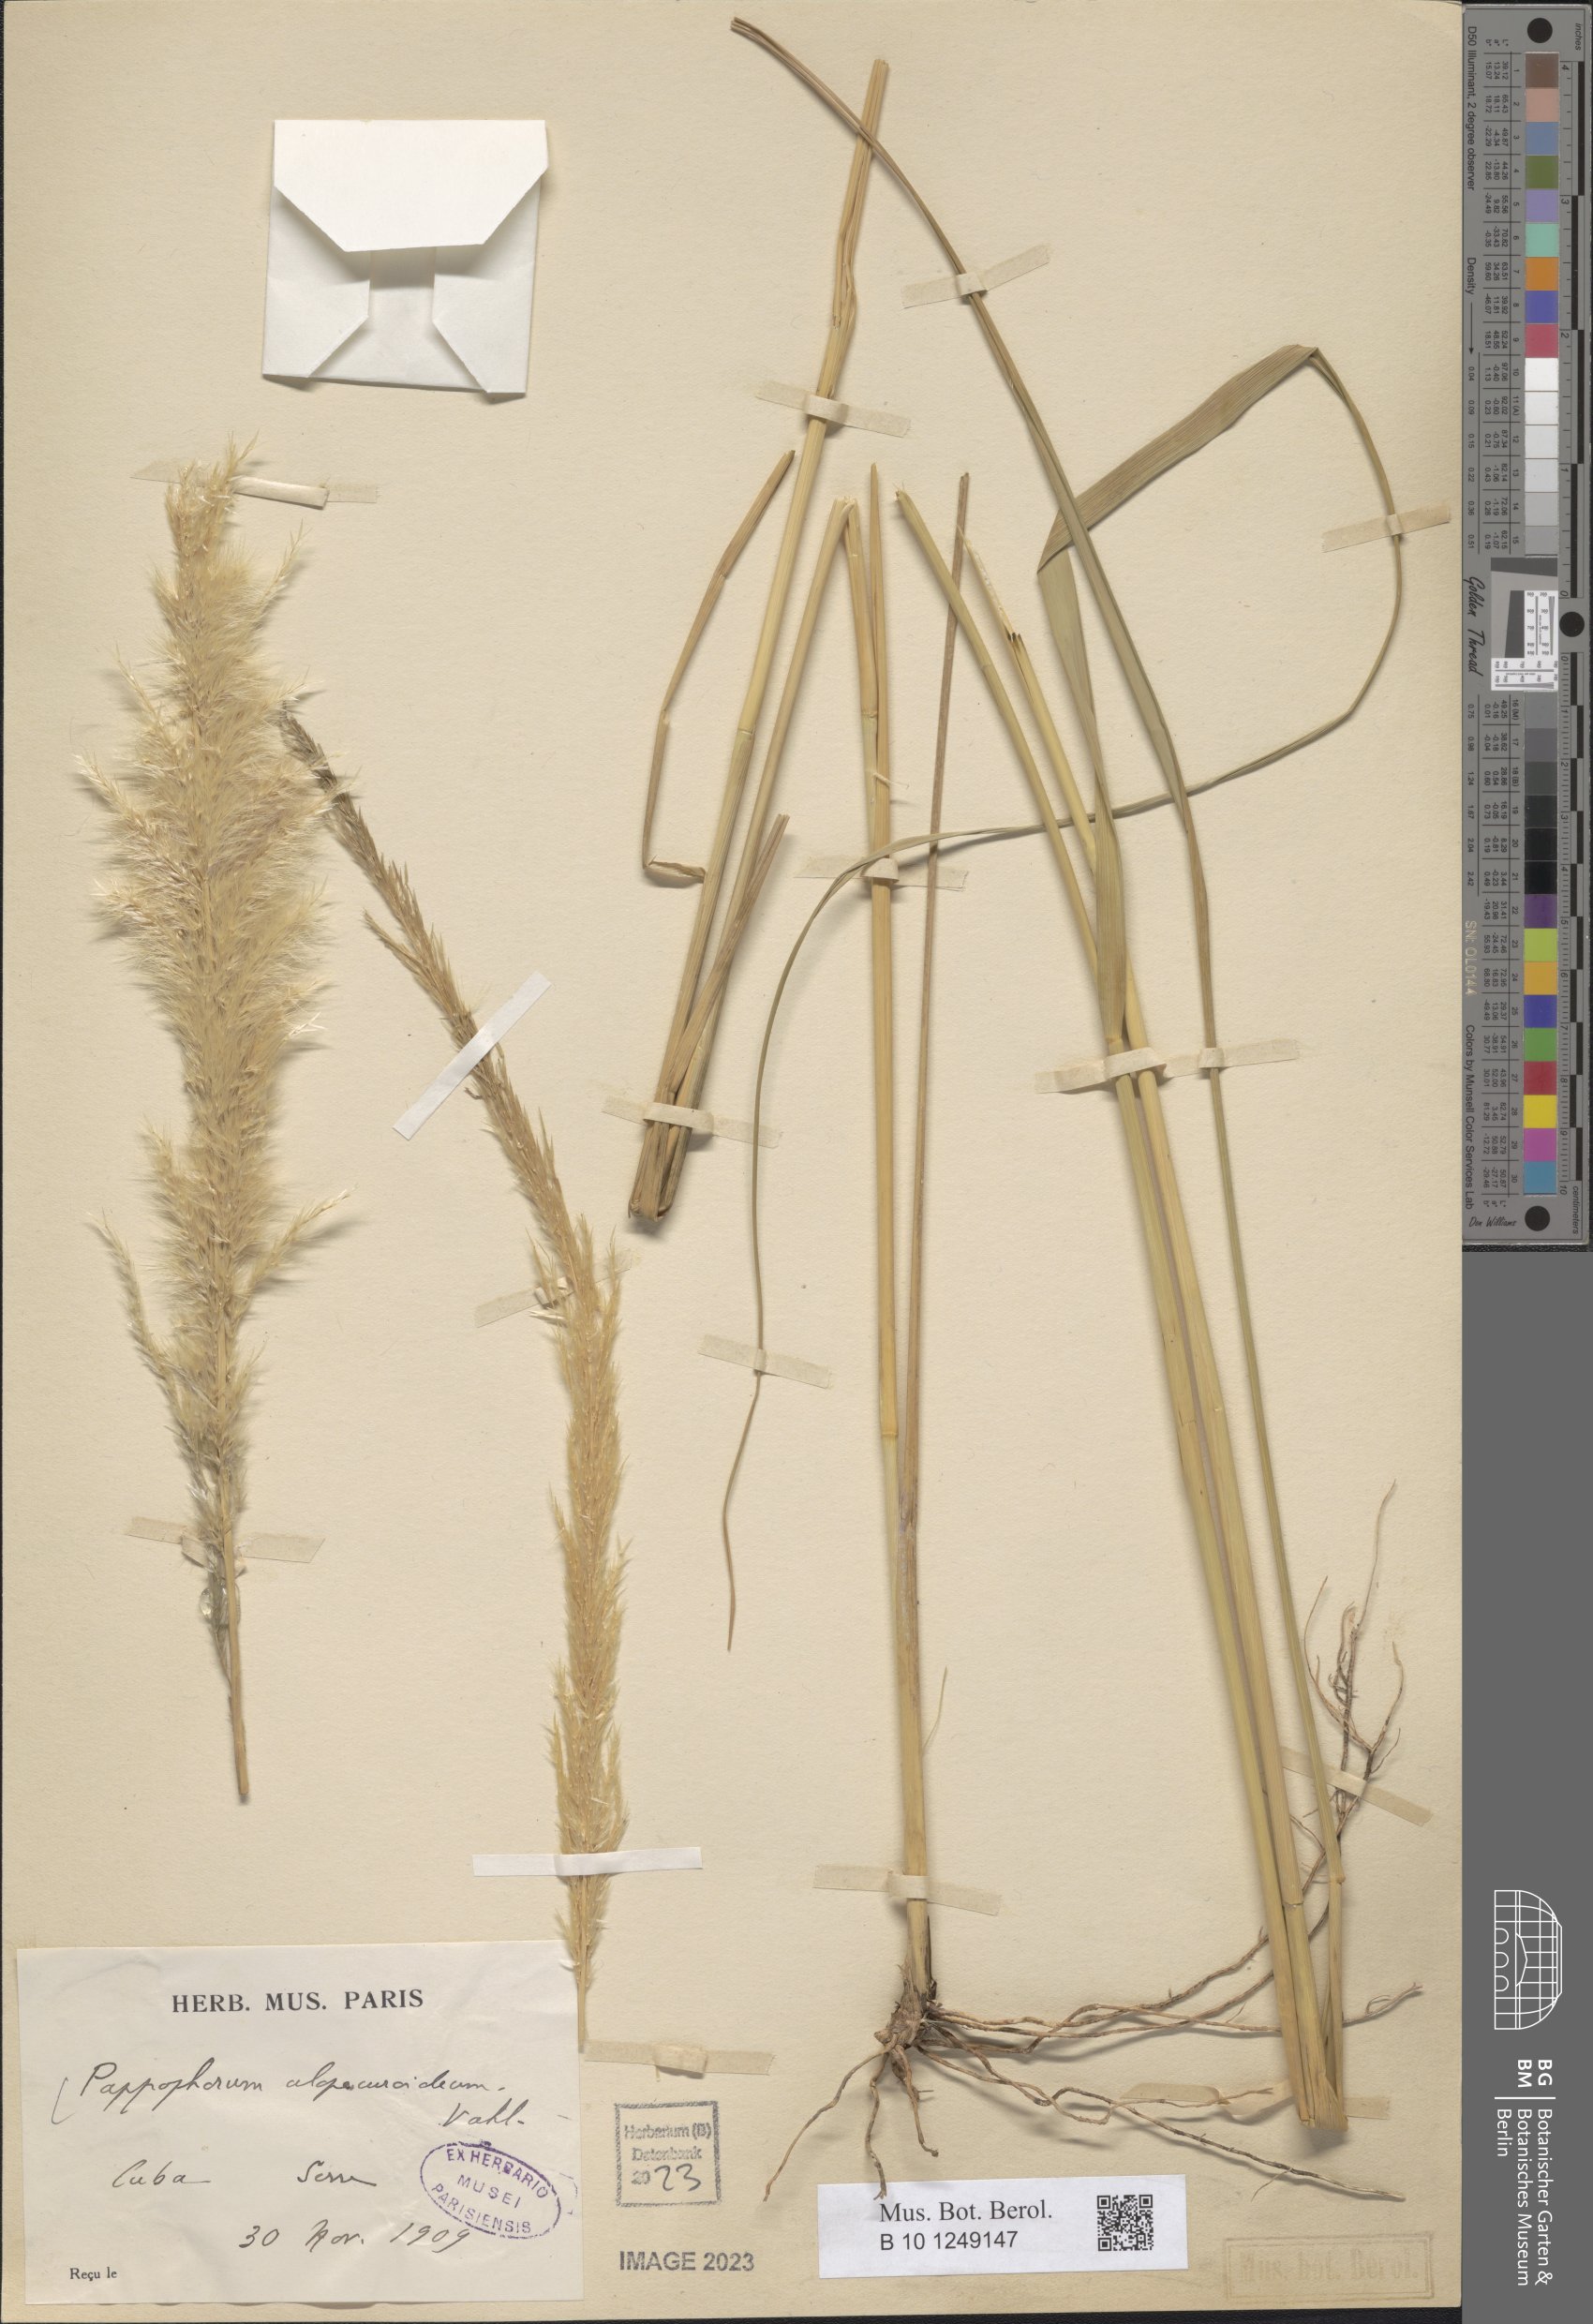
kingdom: Plantae
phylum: Tracheophyta
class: Liliopsida
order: Poales
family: Poaceae
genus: Pappophorum
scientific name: Pappophorum pappiferum
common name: Crabgrass
